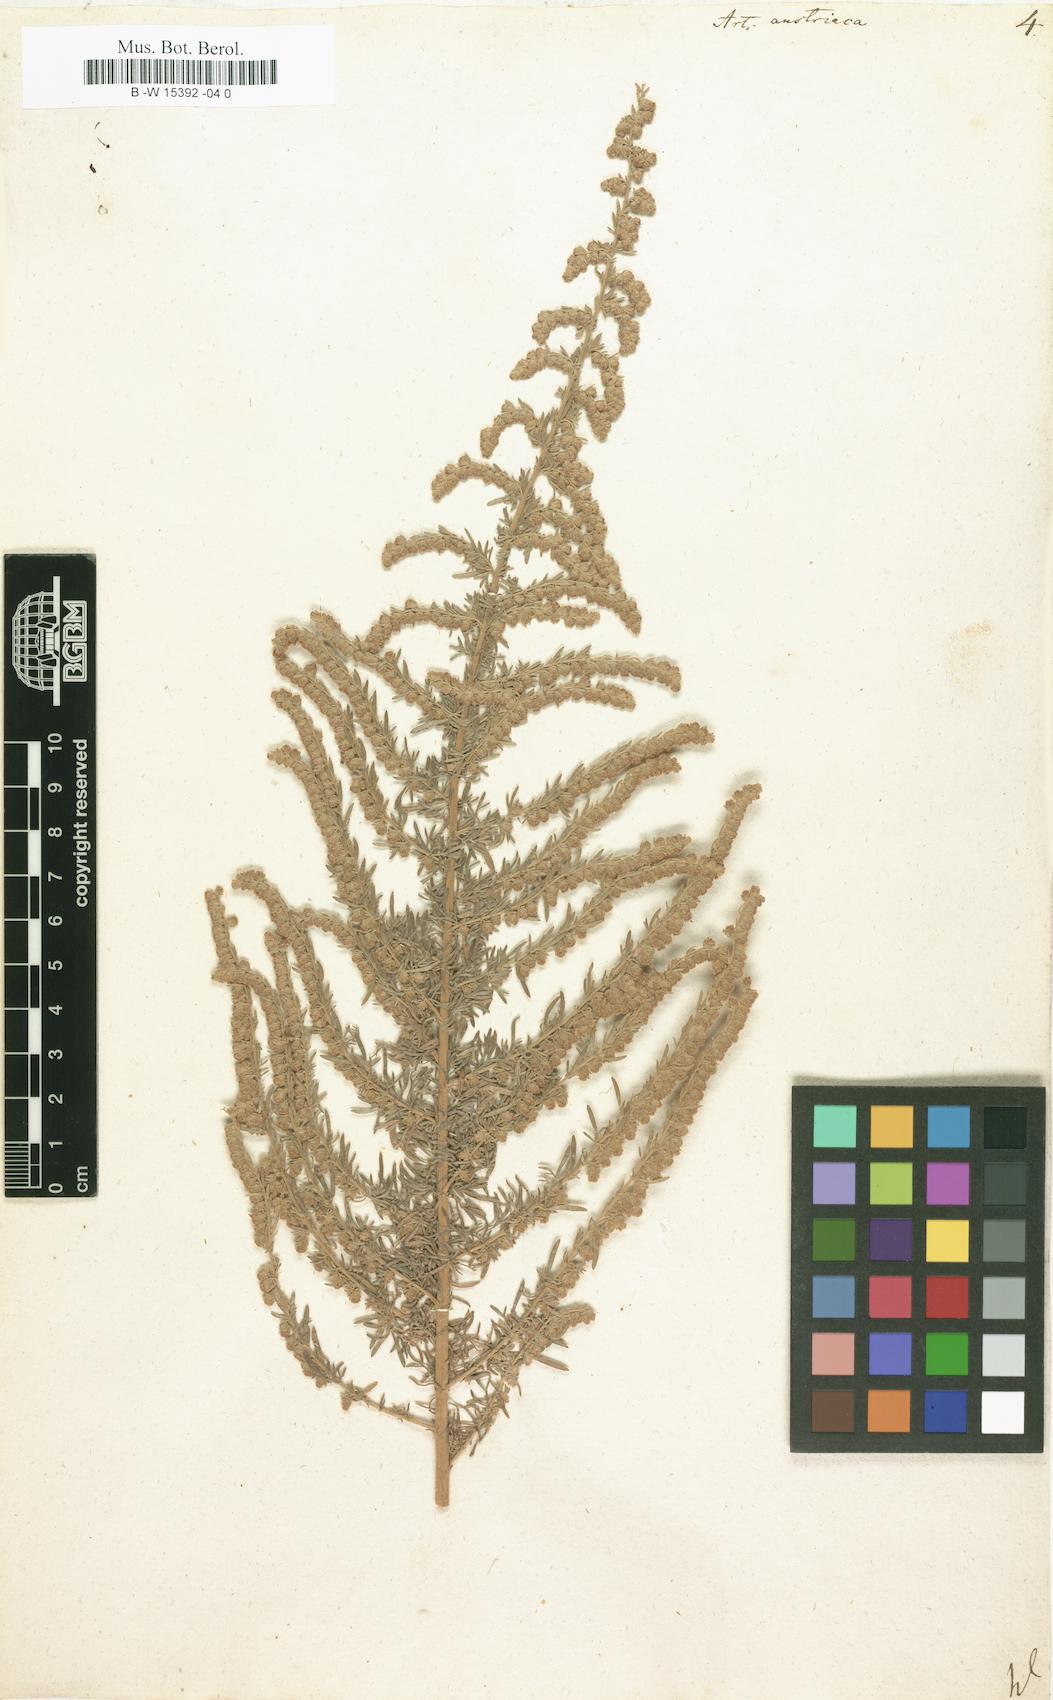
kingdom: Plantae
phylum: Tracheophyta
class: Magnoliopsida
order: Asterales
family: Asteraceae
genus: Artemisia
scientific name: Artemisia austriaca
